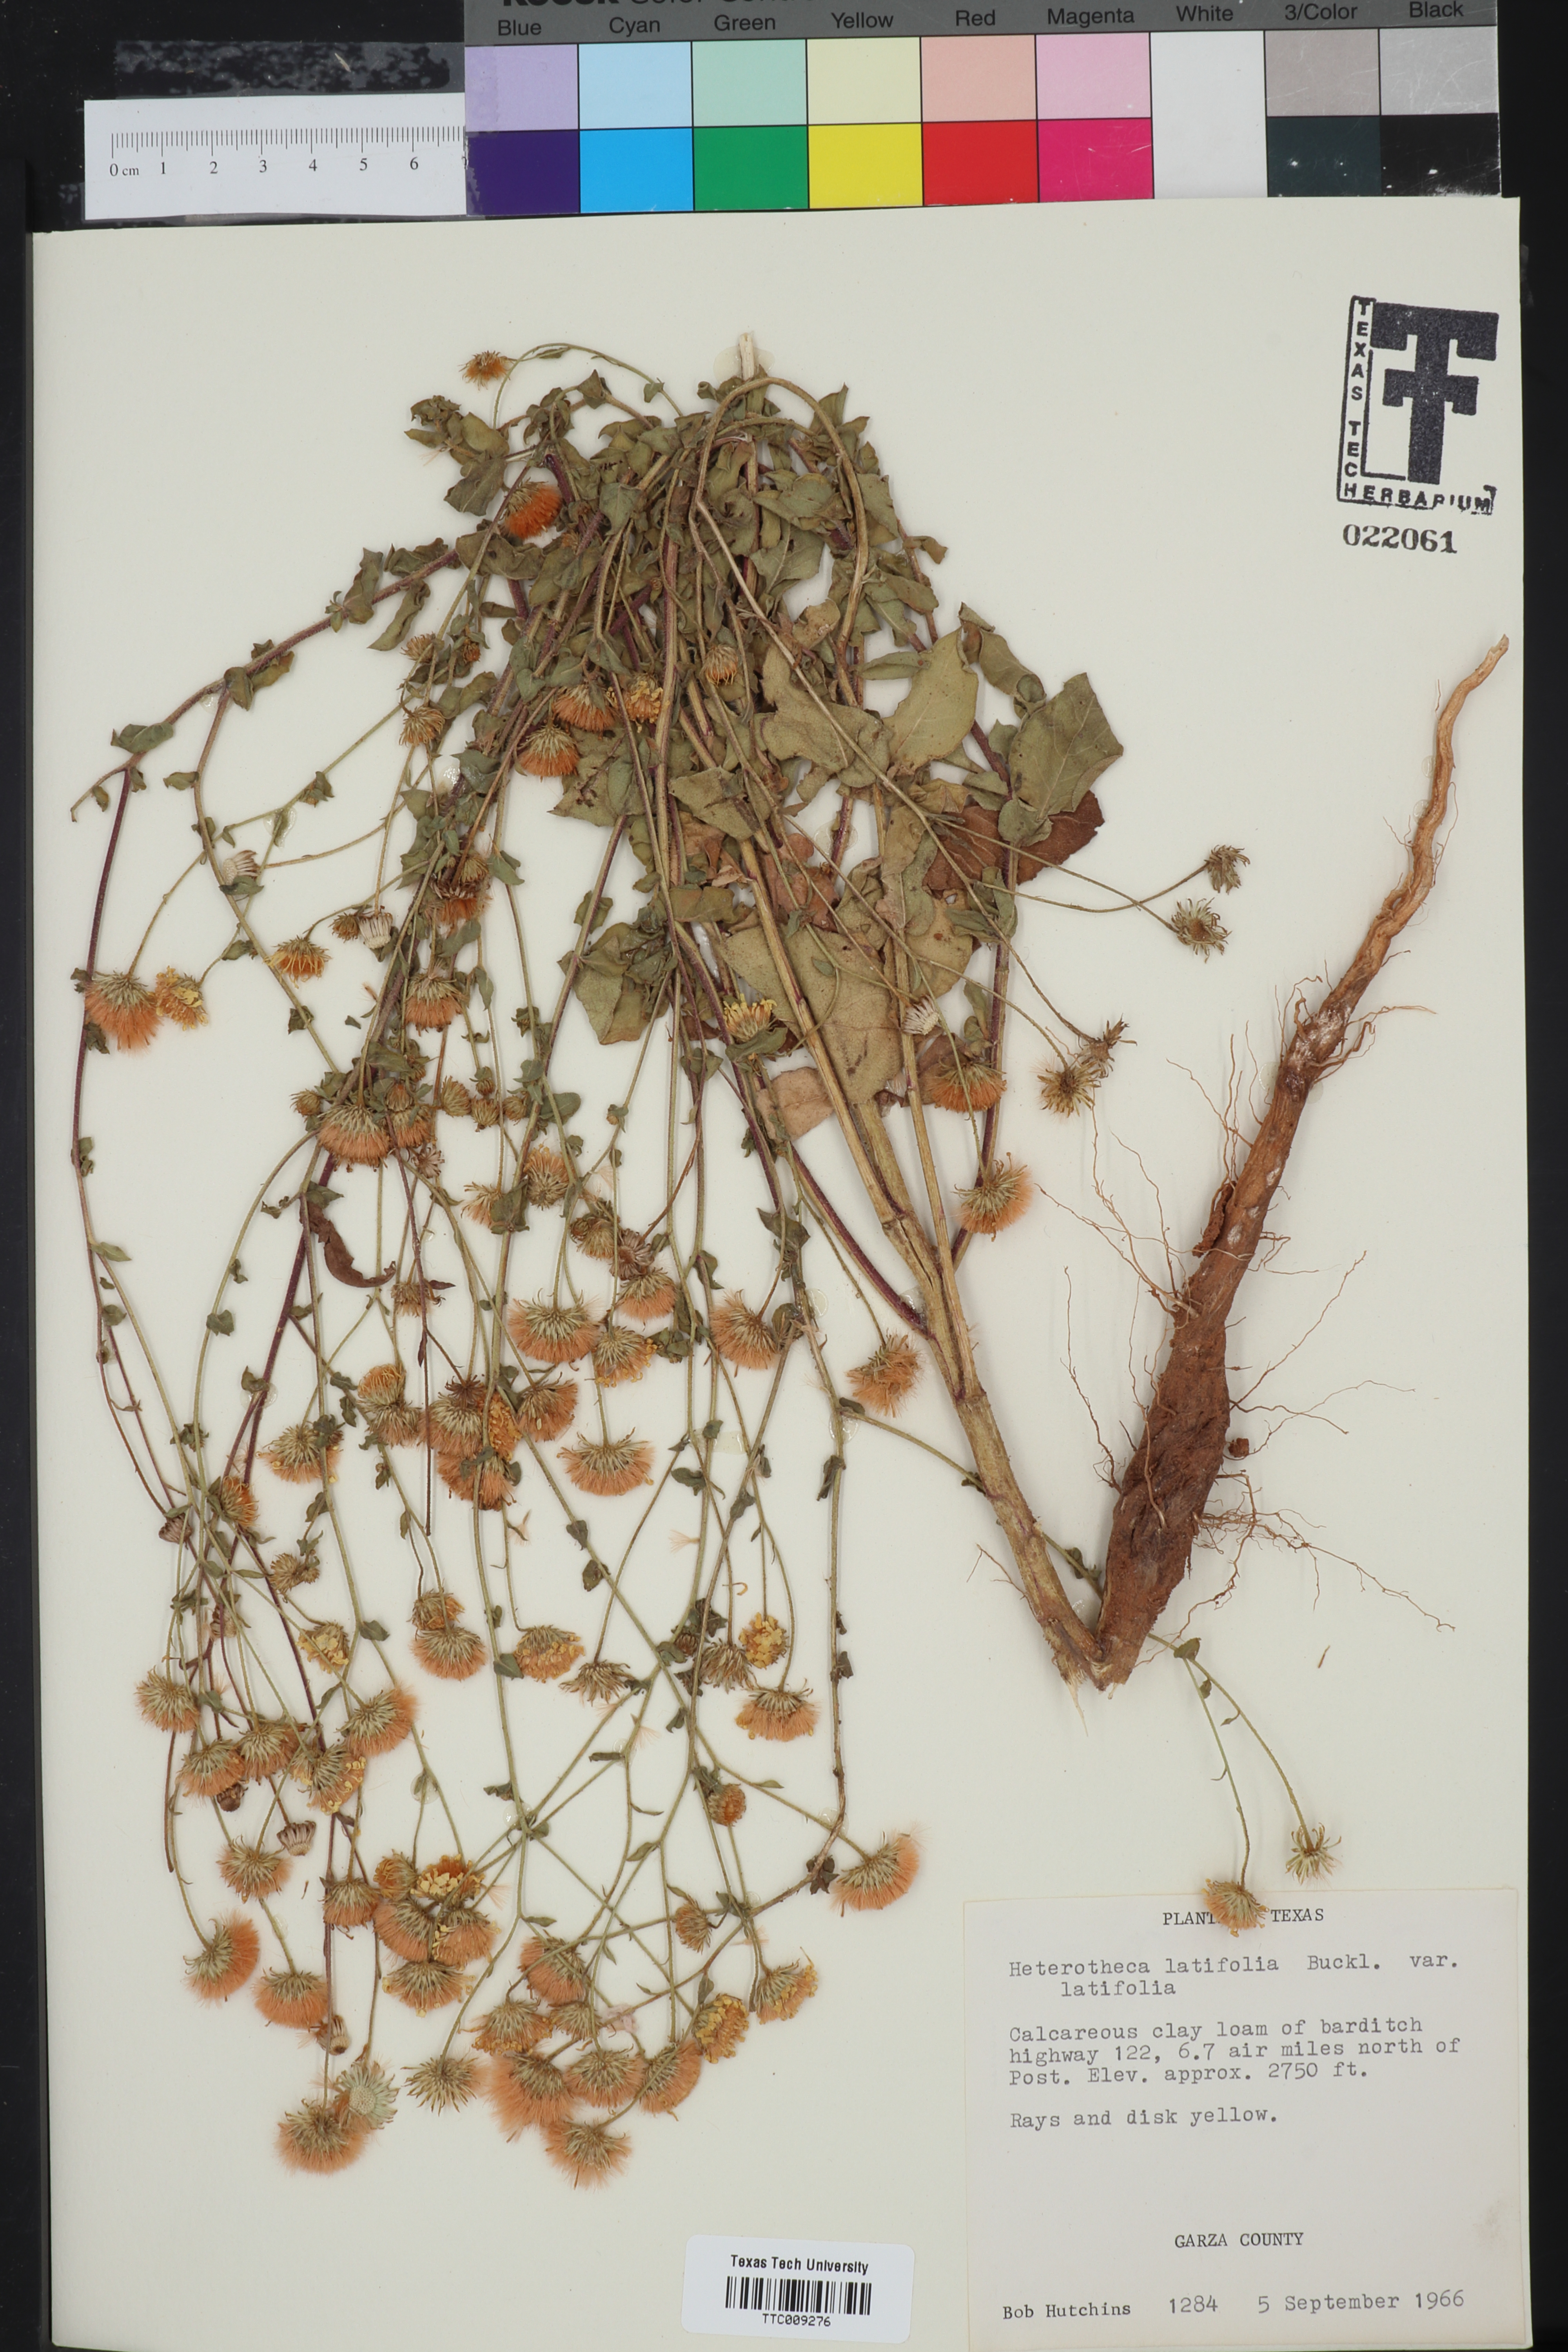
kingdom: Plantae
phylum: Tracheophyta
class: Magnoliopsida
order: Asterales
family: Asteraceae
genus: Heterotheca
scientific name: Heterotheca subaxillaris
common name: Camphorweed
